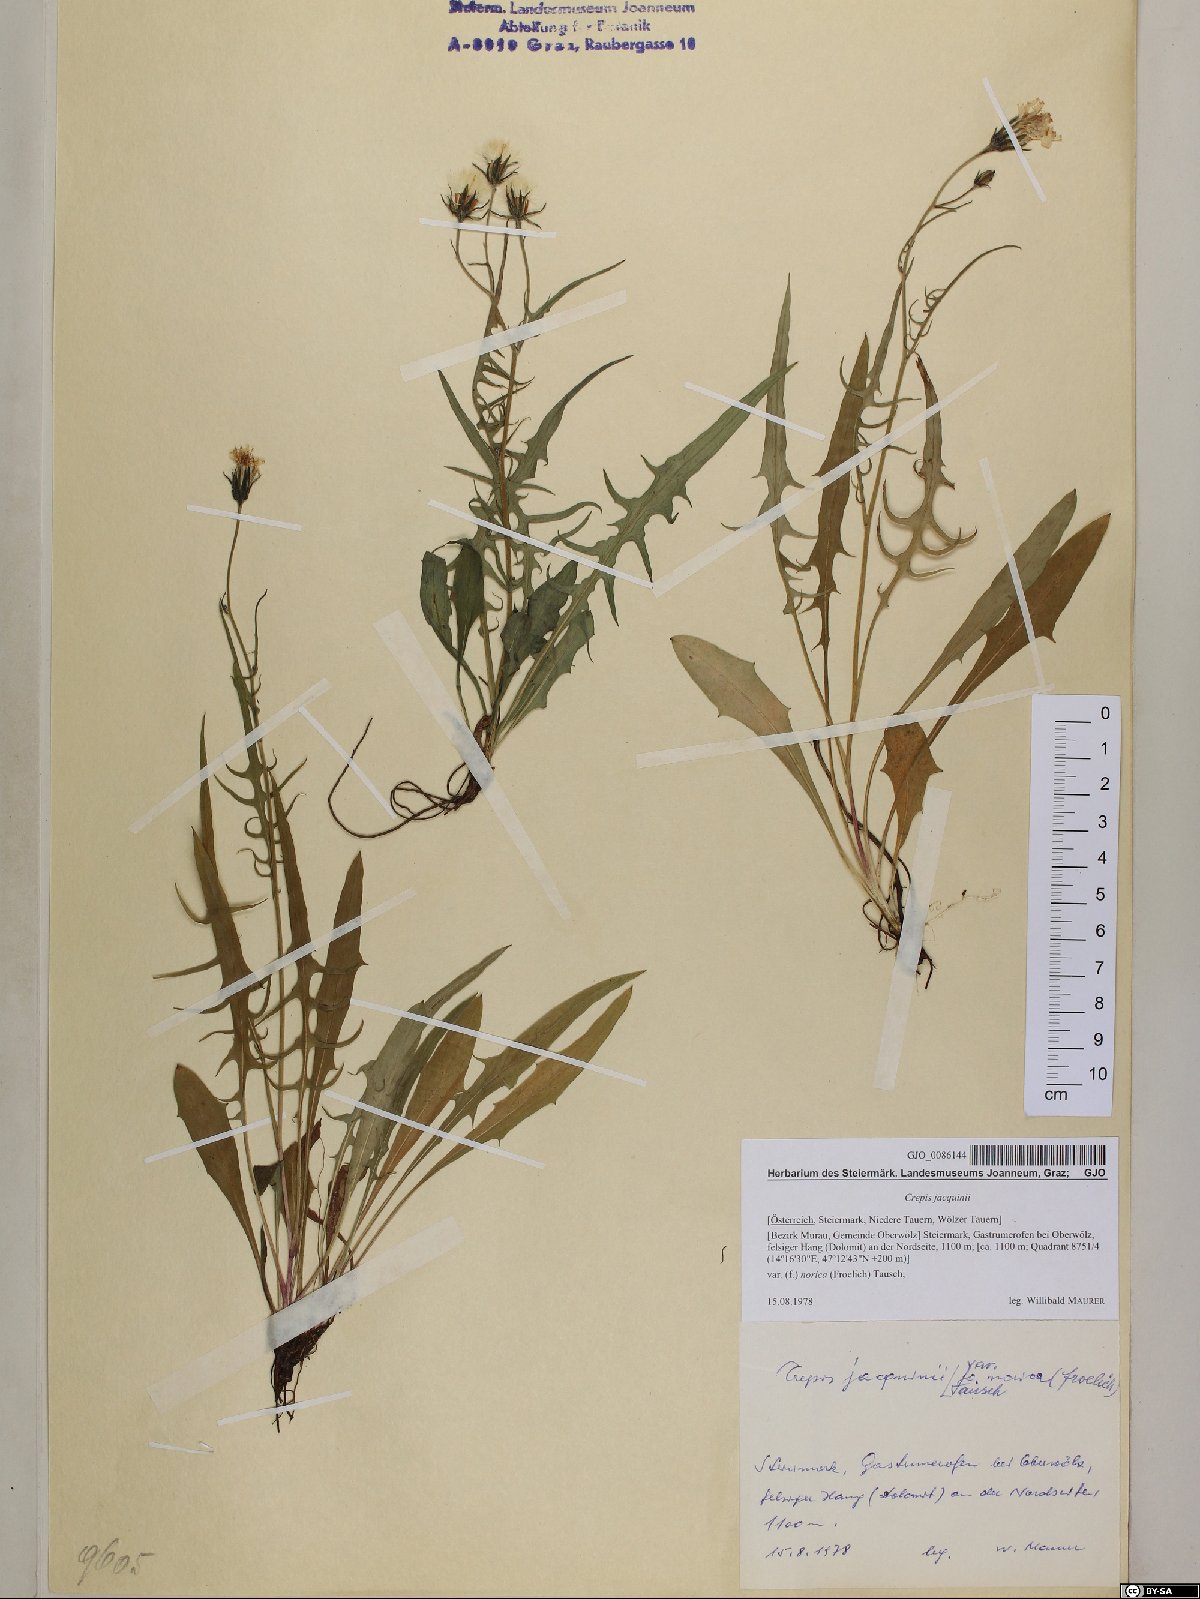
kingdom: Plantae
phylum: Tracheophyta
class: Magnoliopsida
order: Asterales
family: Asteraceae
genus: Crepis
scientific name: Crepis jacquinii
